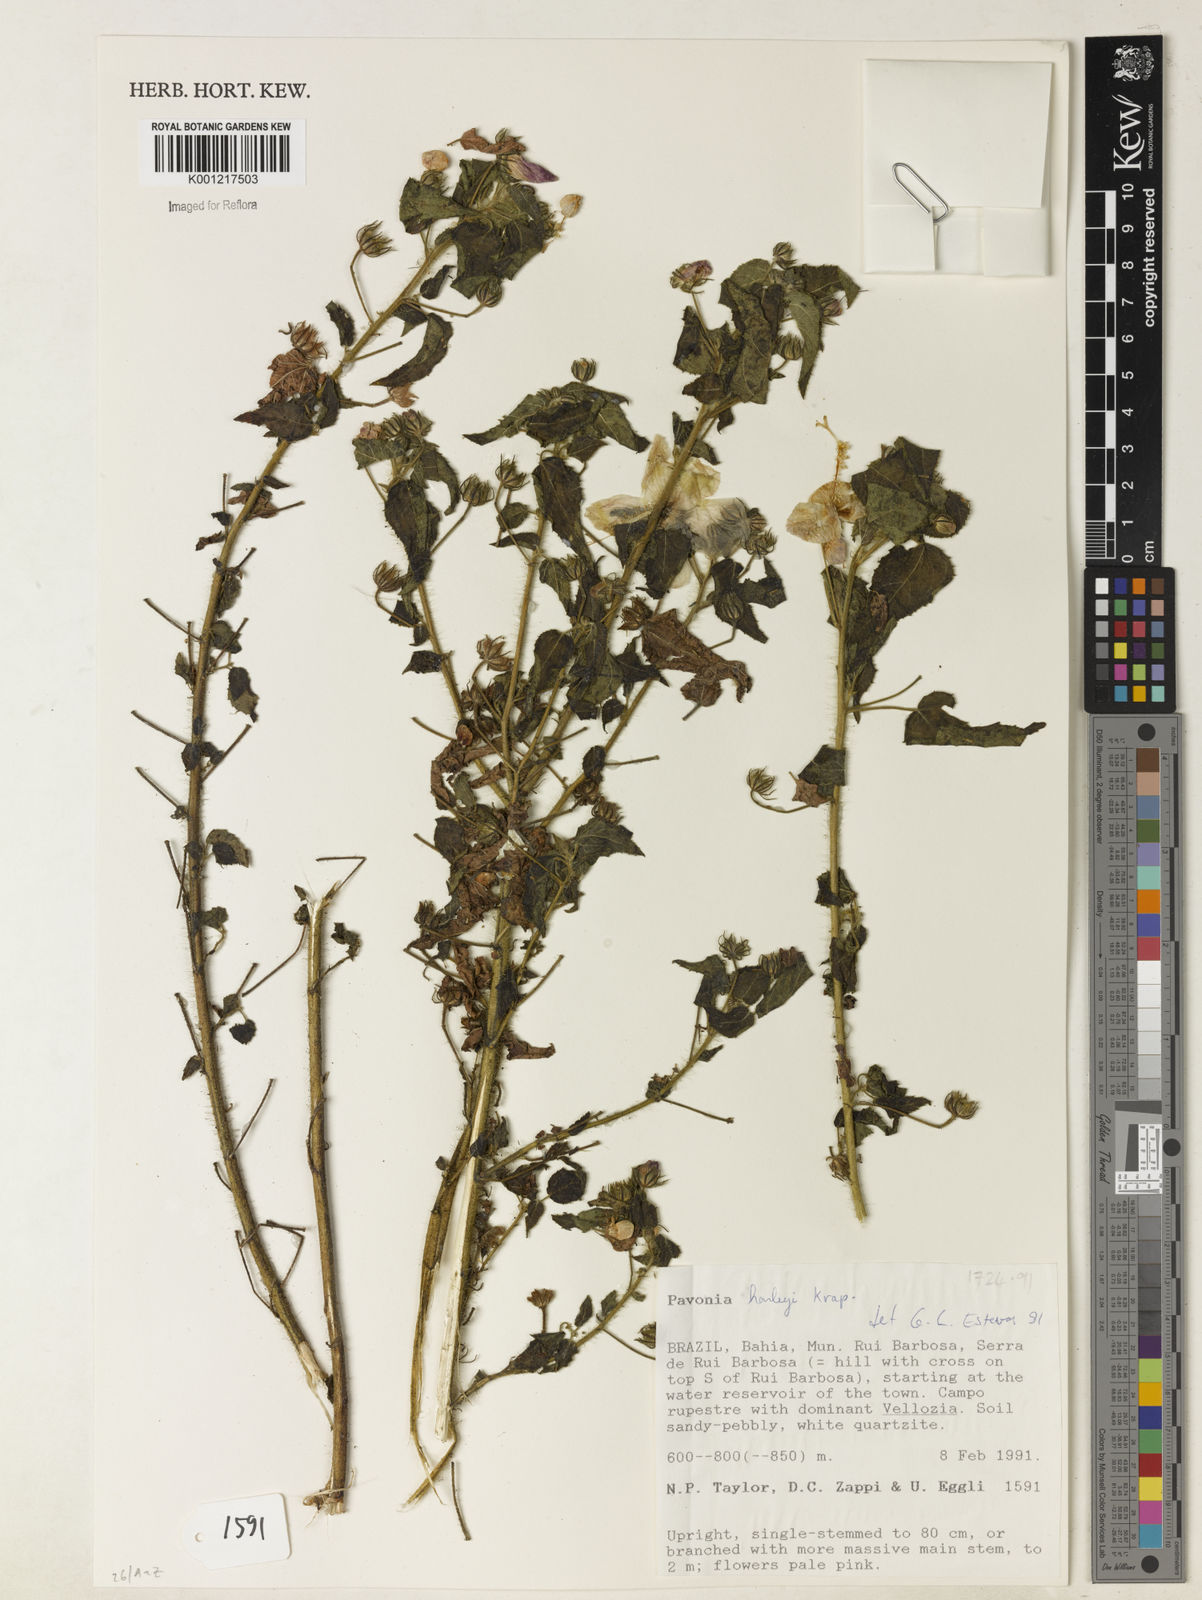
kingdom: Plantae
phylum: Tracheophyta
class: Magnoliopsida
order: Malvales
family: Malvaceae
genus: Pavonia
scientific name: Pavonia harleyi
